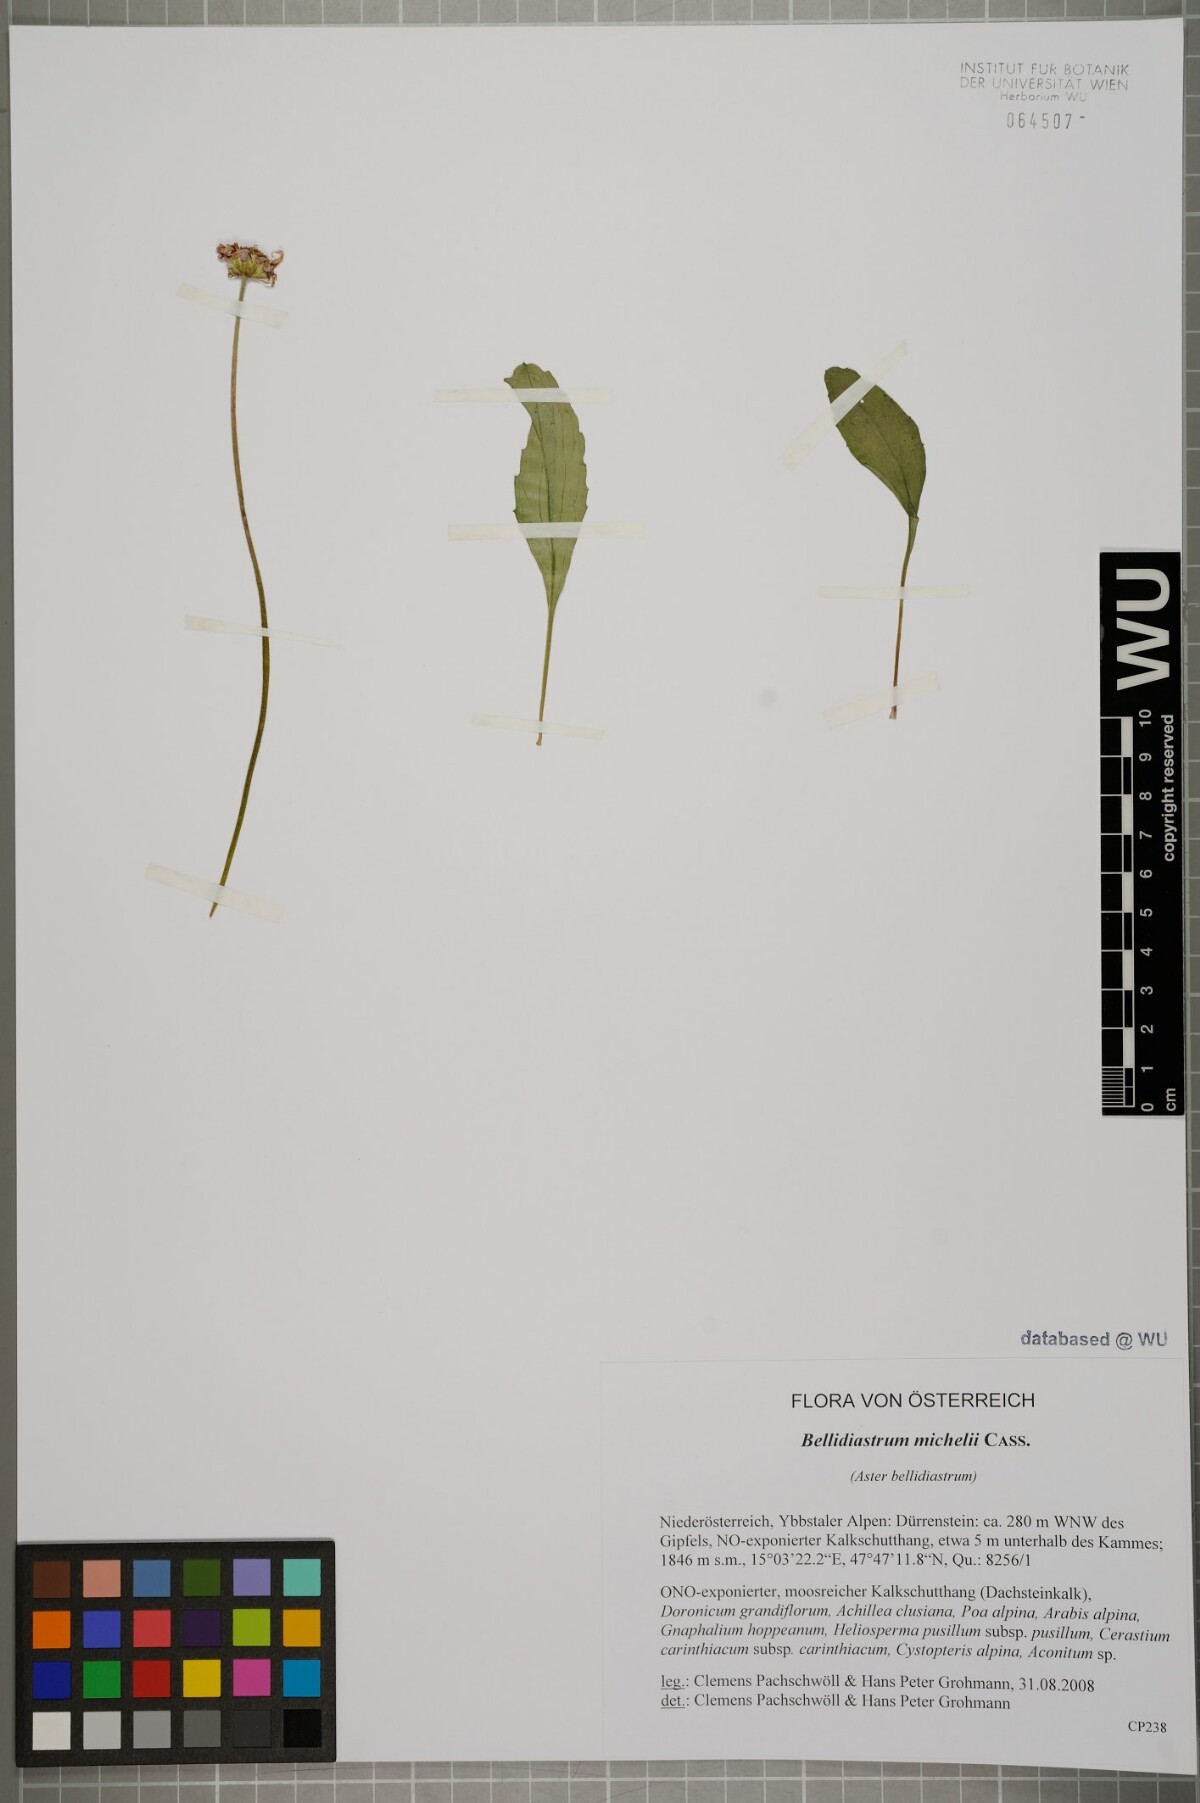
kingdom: Plantae
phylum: Tracheophyta
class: Magnoliopsida
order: Asterales
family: Asteraceae
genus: Bellidiastrum
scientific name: Bellidiastrum michelii
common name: Daisy-star aster
